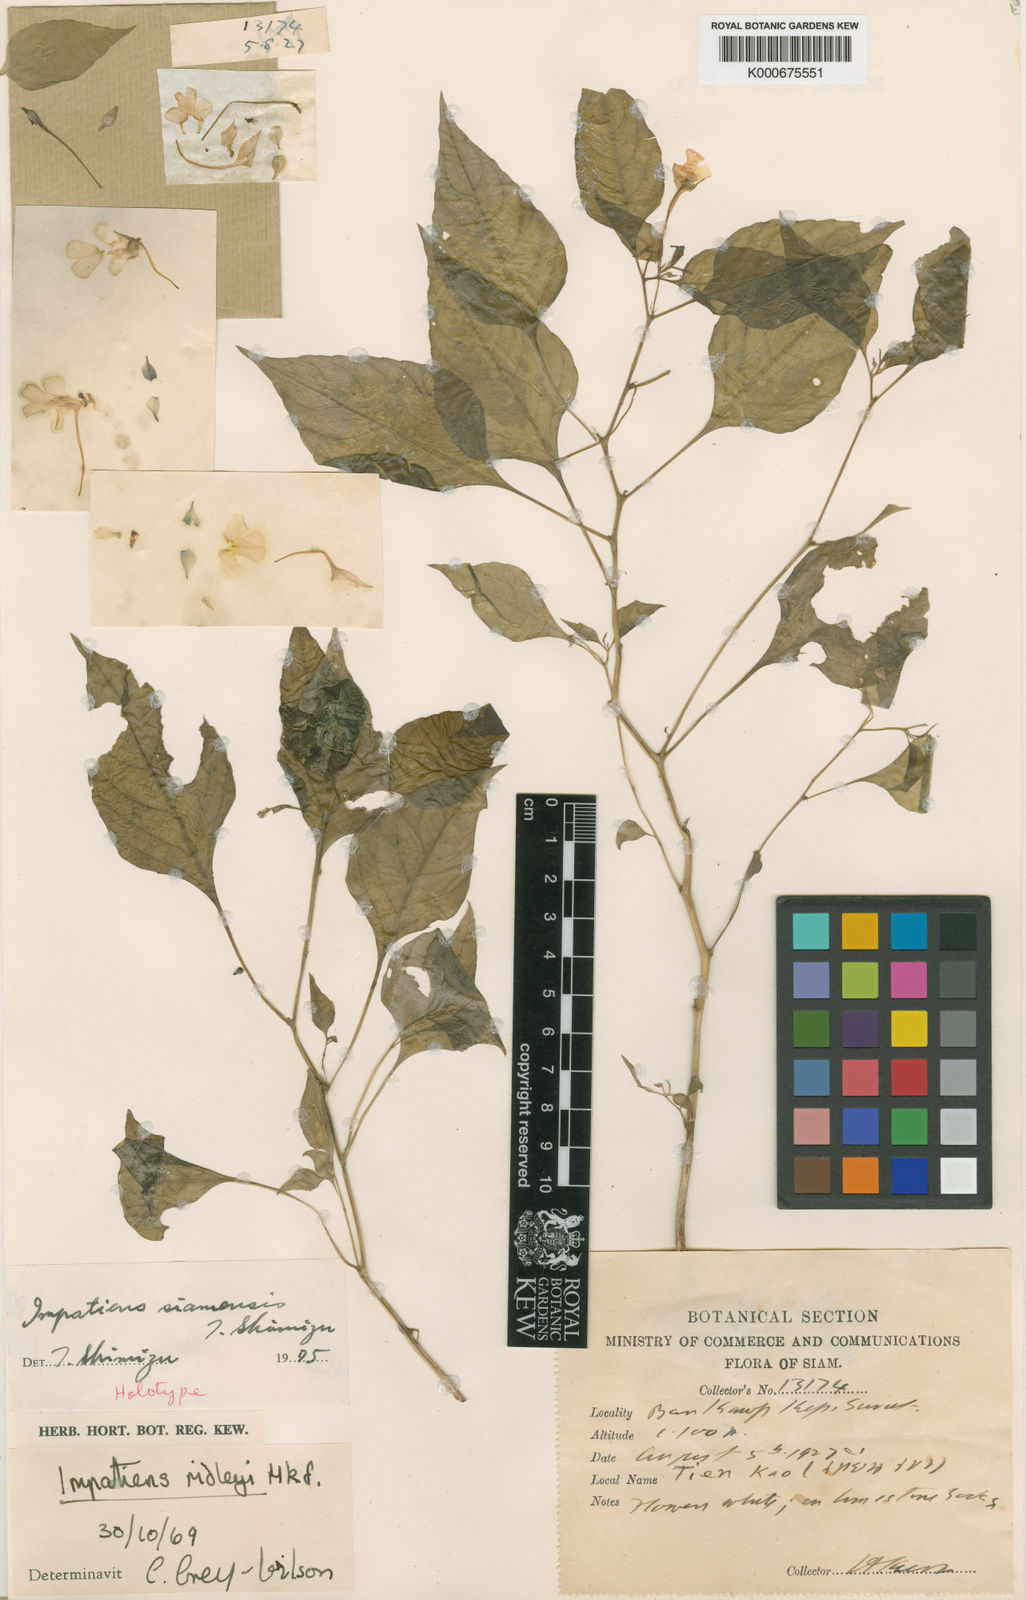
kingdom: Plantae
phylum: Tracheophyta
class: Magnoliopsida
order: Ericales
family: Balsaminaceae
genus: Impatiens
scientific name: Impatiens siamensis
